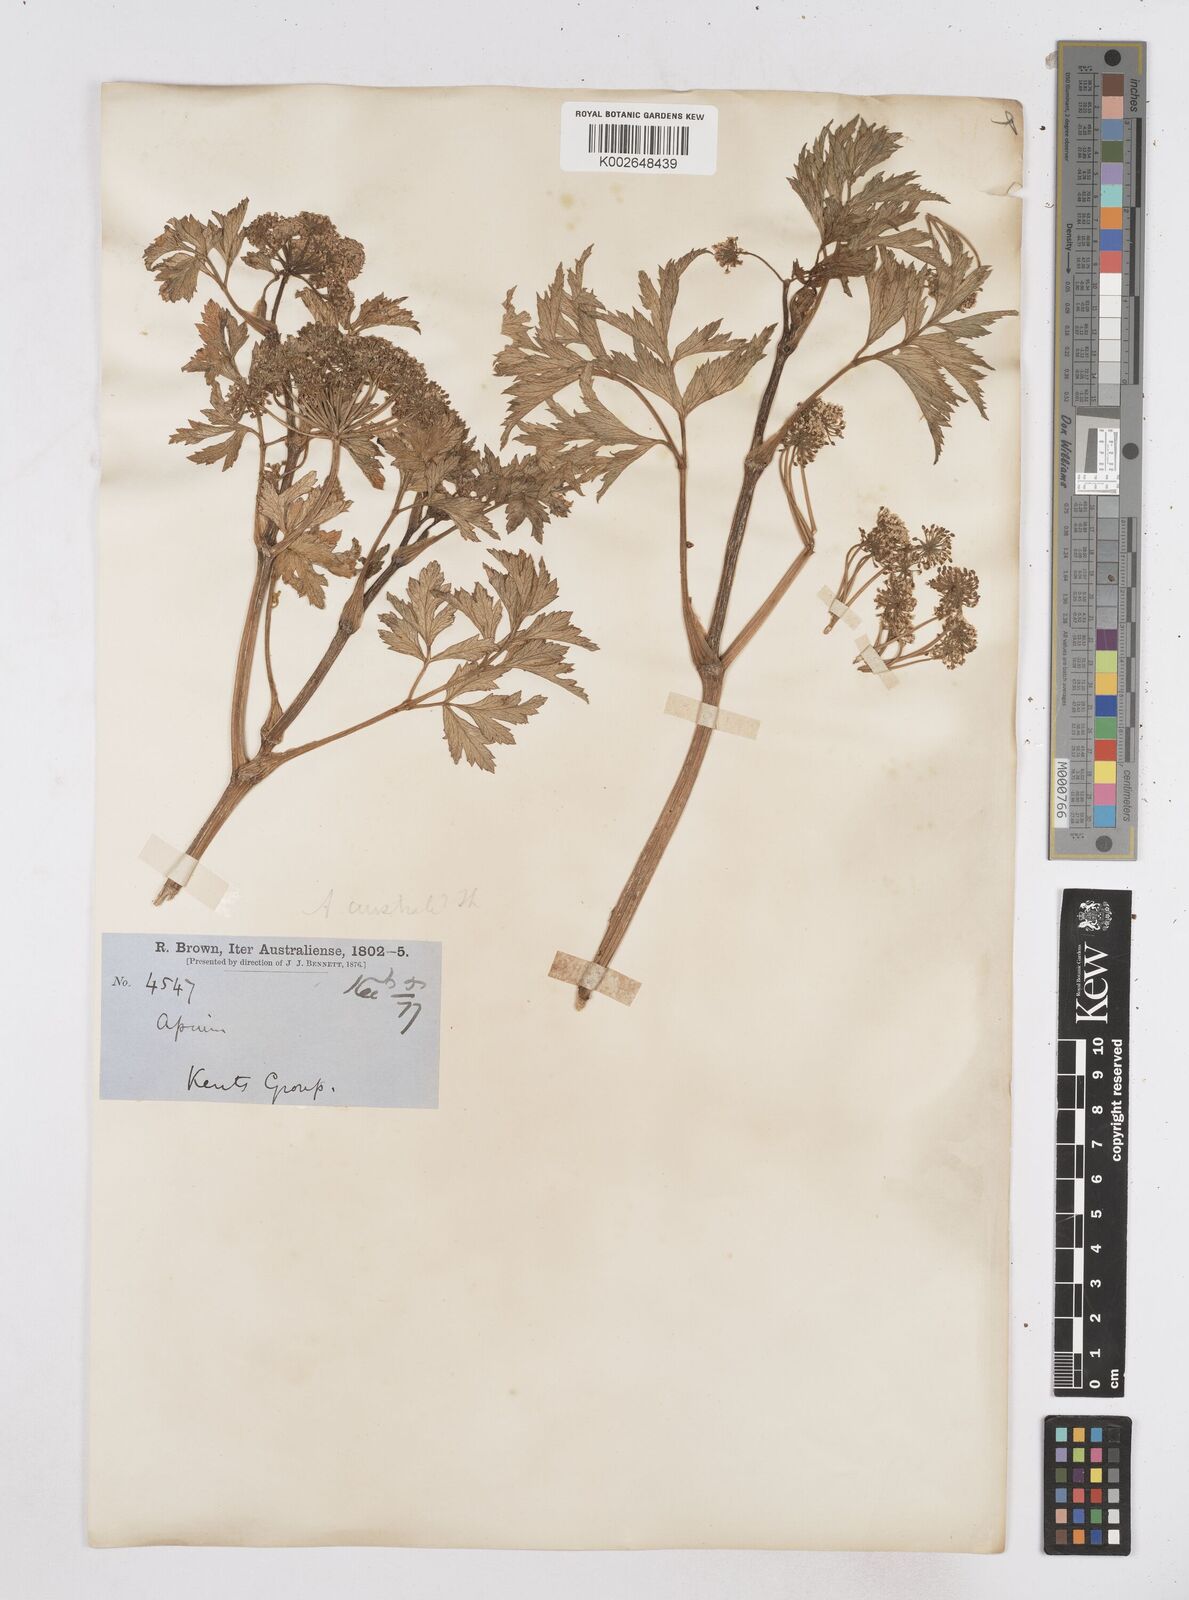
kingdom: Plantae
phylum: Tracheophyta
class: Magnoliopsida
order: Apiales
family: Apiaceae
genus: Apium
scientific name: Apium insulare
